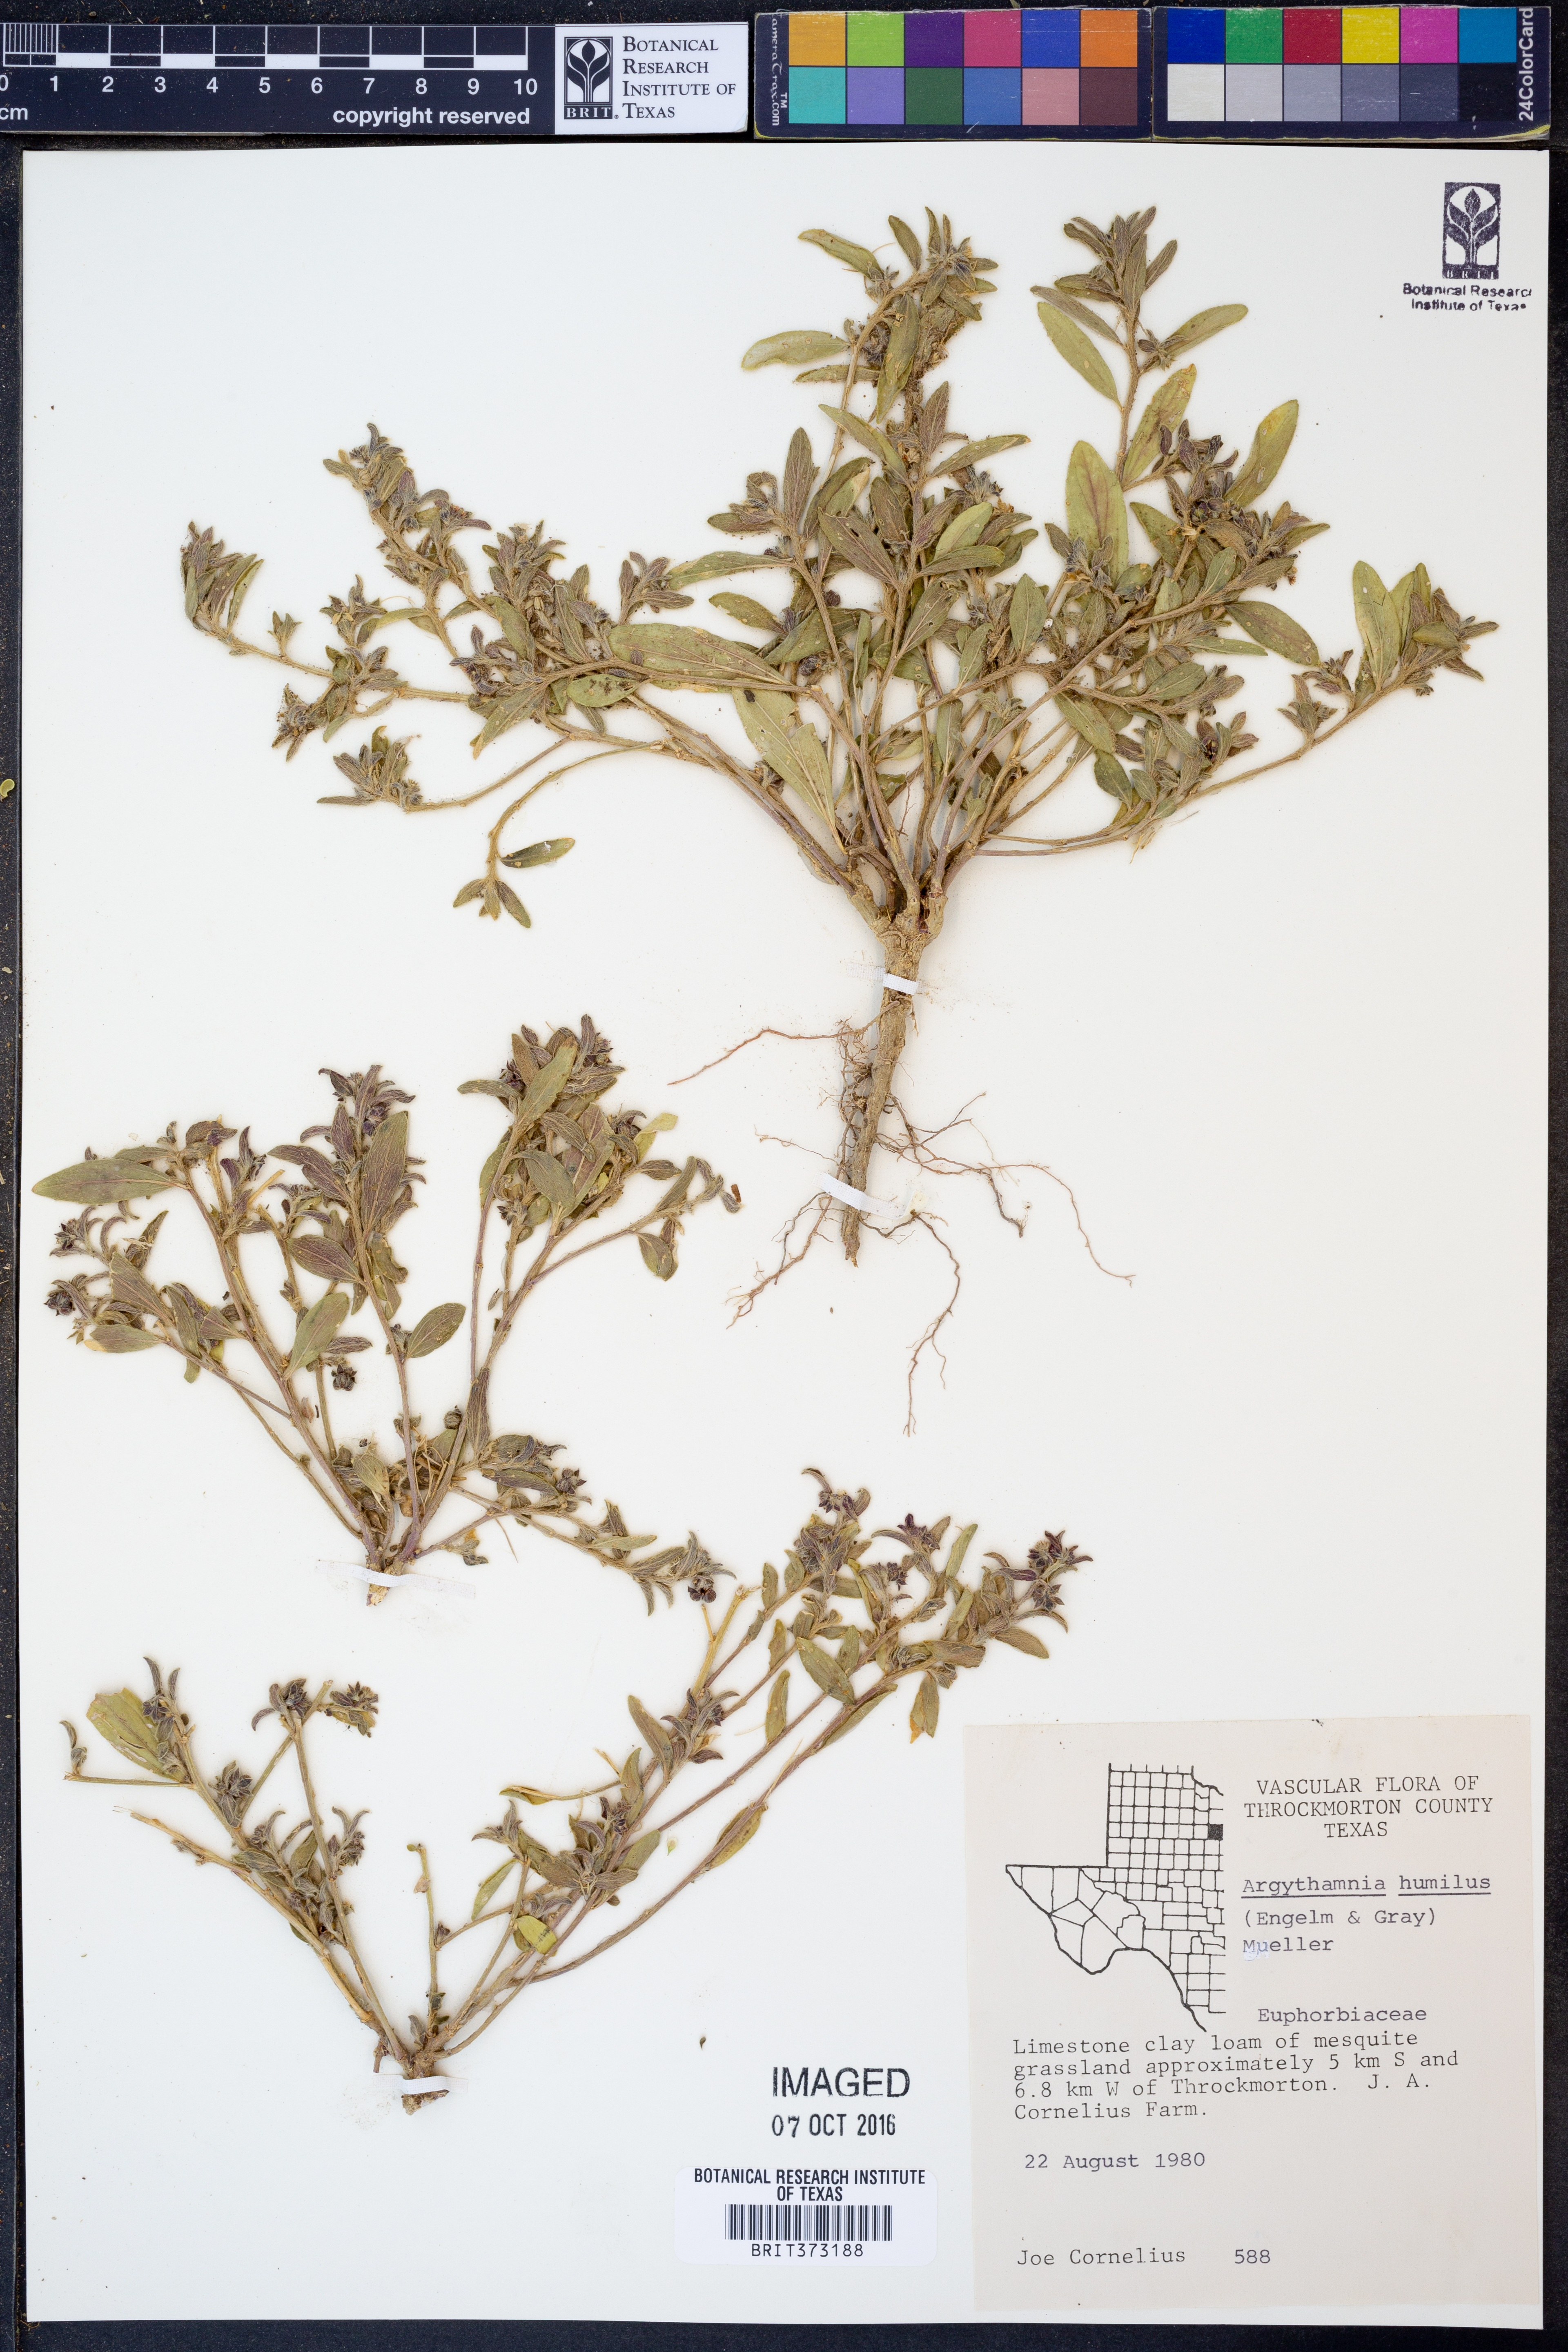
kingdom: Plantae
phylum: Tracheophyta
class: Magnoliopsida
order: Malpighiales
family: Euphorbiaceae
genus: Ditaxis
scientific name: Ditaxis humilis
